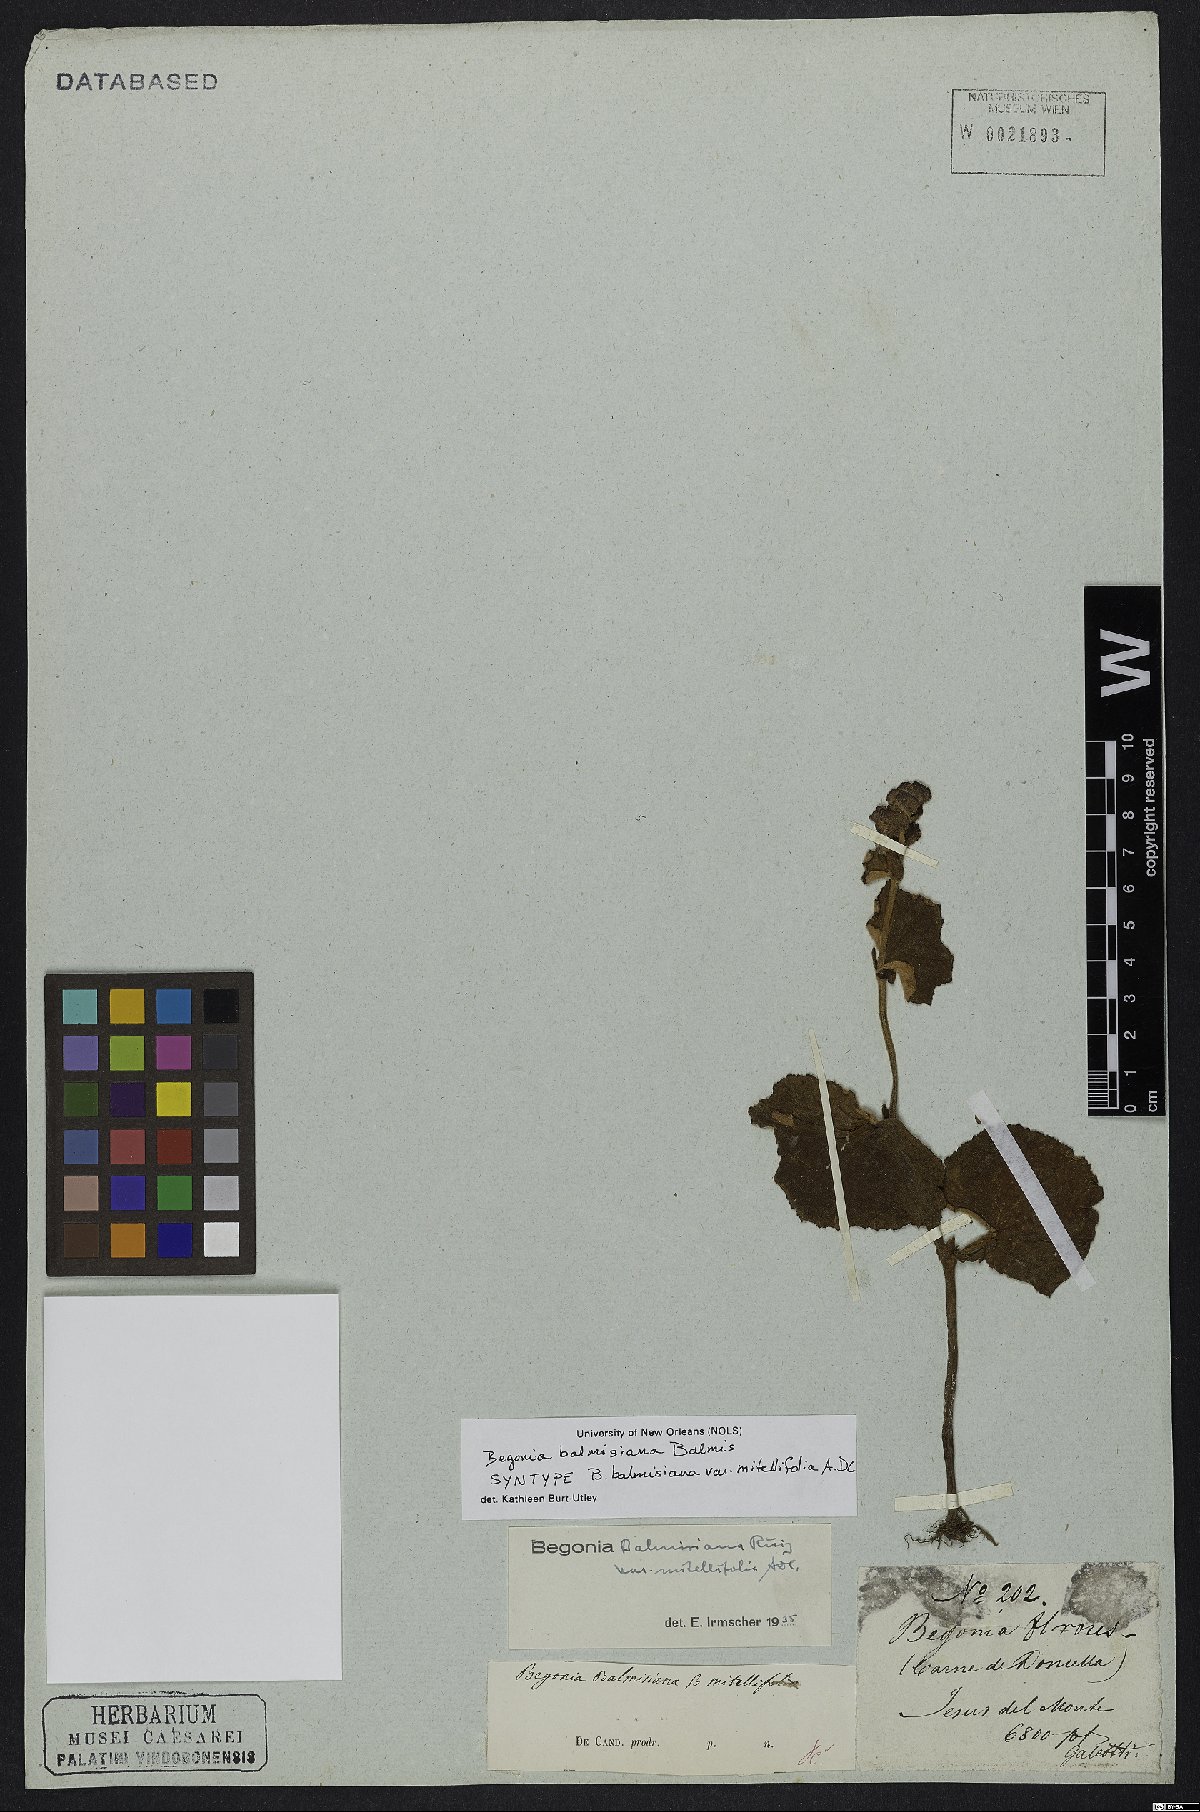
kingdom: Plantae
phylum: Tracheophyta
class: Magnoliopsida
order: Cucurbitales
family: Begoniaceae
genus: Begonia
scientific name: Begonia balmisiana
